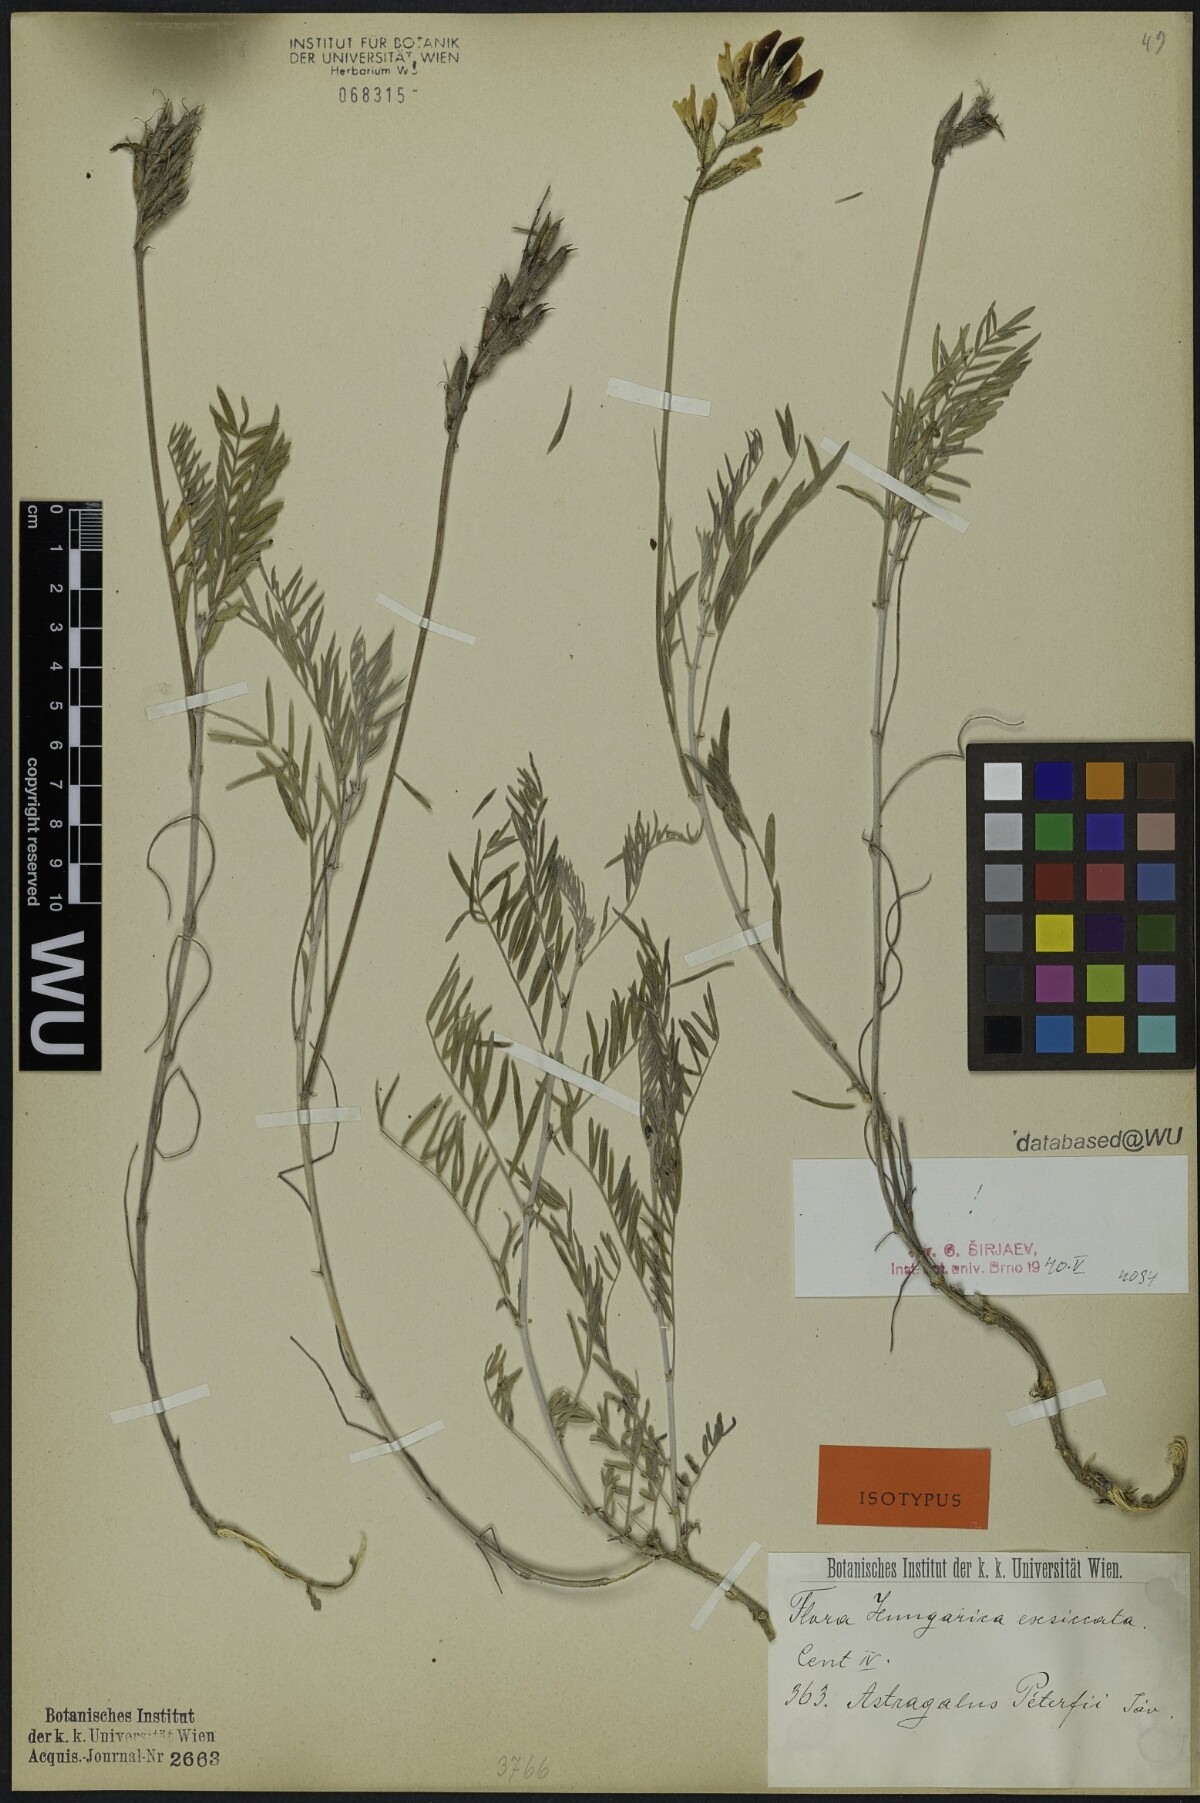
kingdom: Plantae
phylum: Tracheophyta
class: Magnoliopsida
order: Fabales
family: Fabaceae
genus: Astragalus
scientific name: Astragalus peterfii
